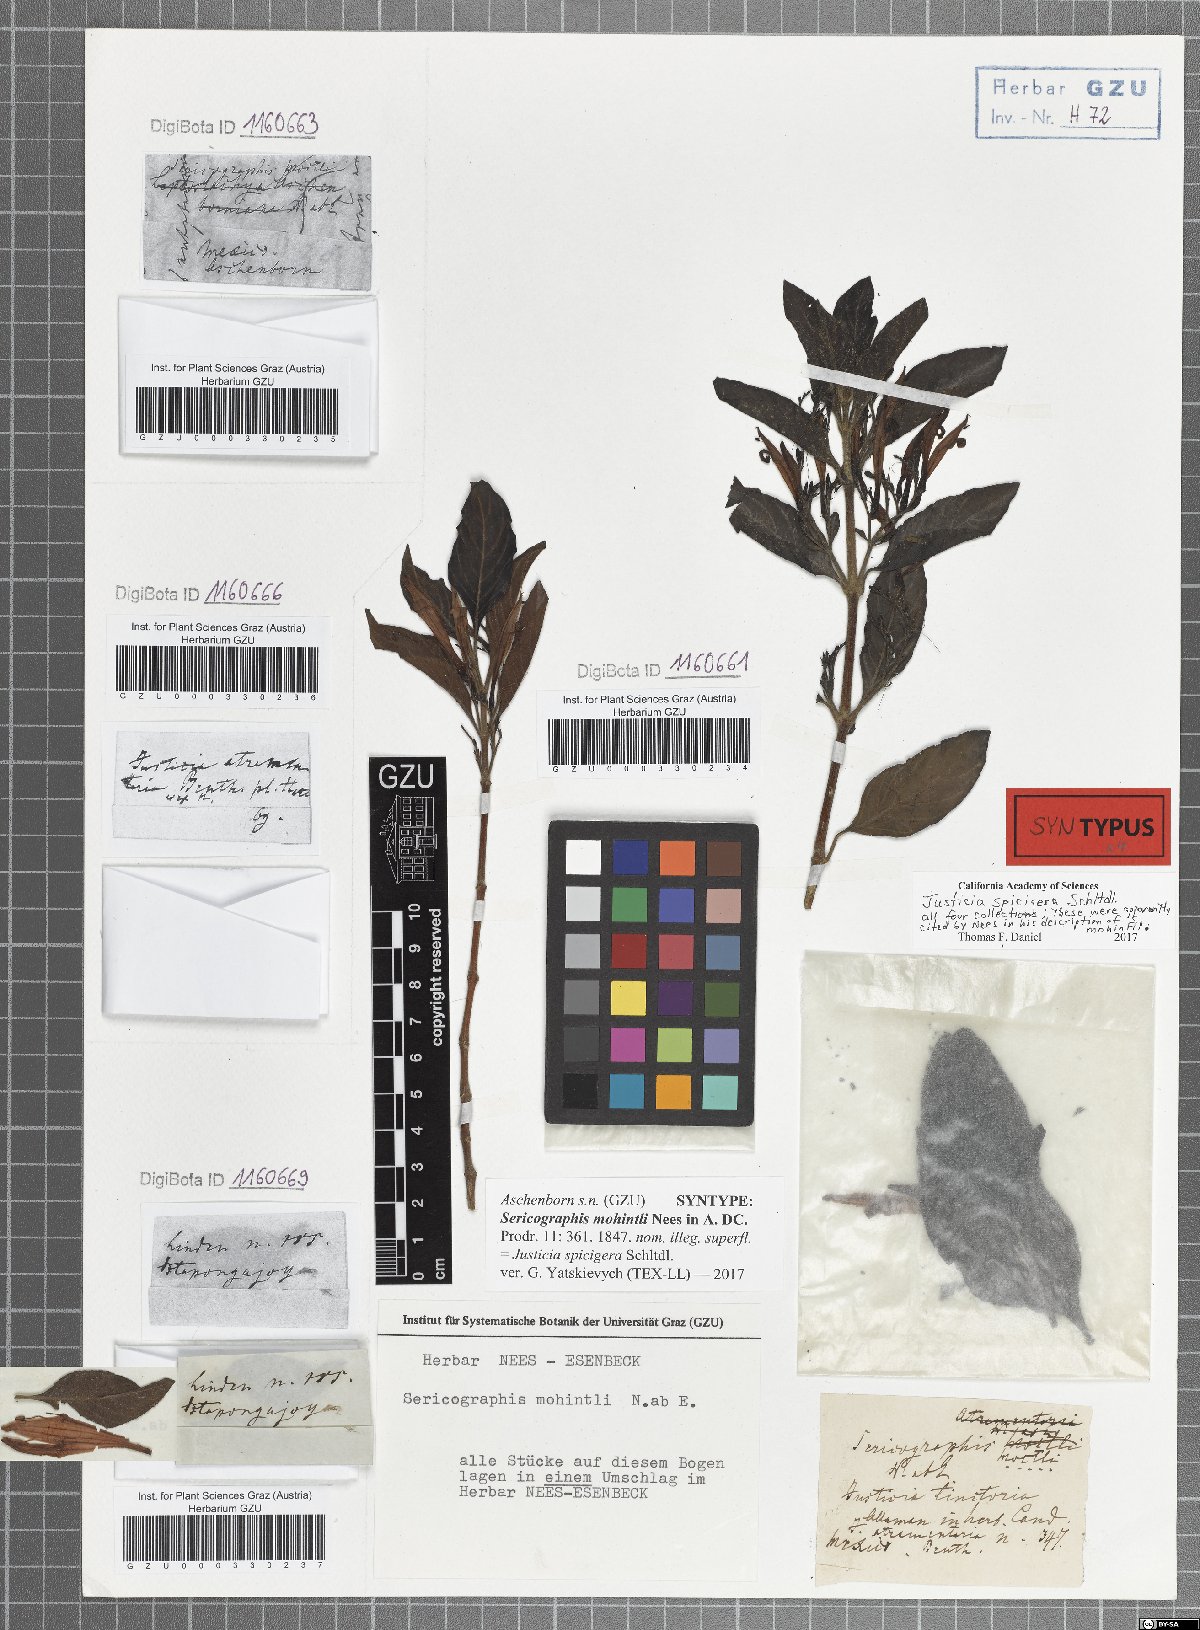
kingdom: Plantae
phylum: Tracheophyta
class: Magnoliopsida
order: Lamiales
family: Acanthaceae
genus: Justicia
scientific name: Justicia spicigera
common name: Mohintli
